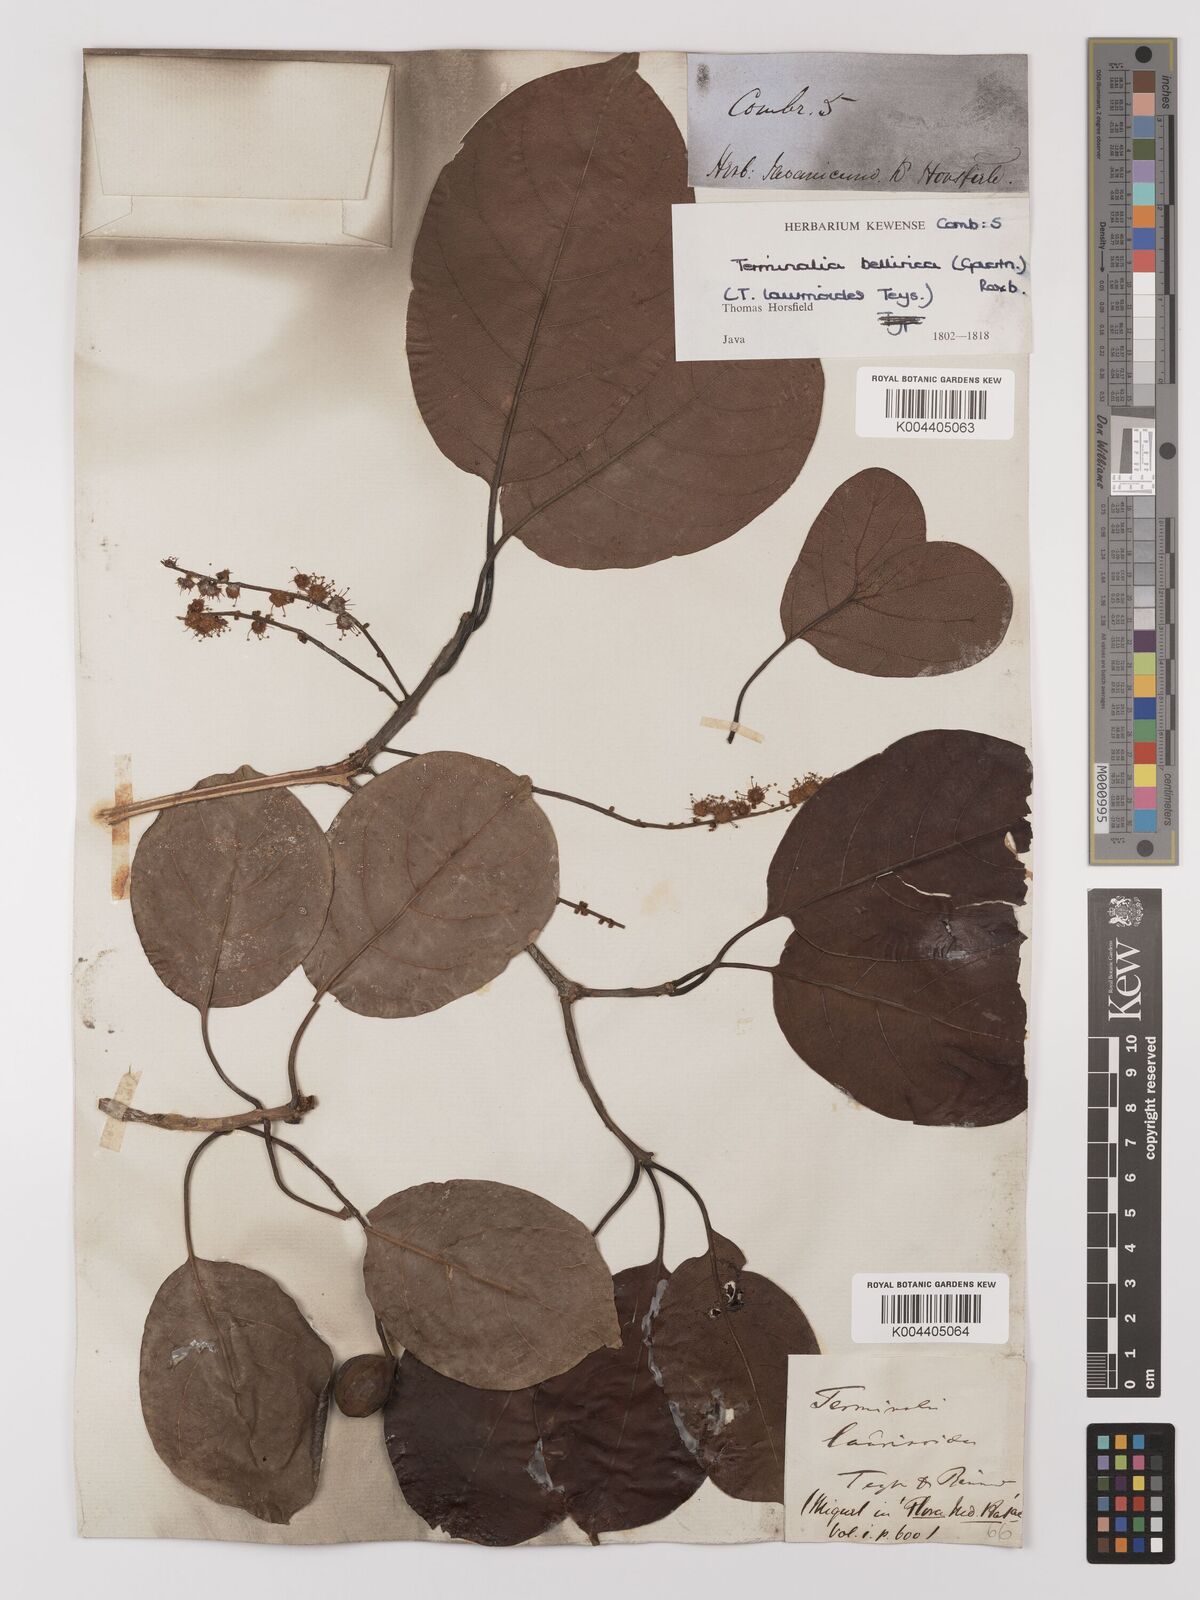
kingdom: Plantae
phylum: Tracheophyta
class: Magnoliopsida
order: Myrtales
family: Combretaceae
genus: Terminalia
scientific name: Terminalia bellirica
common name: Beleric myrobalan
